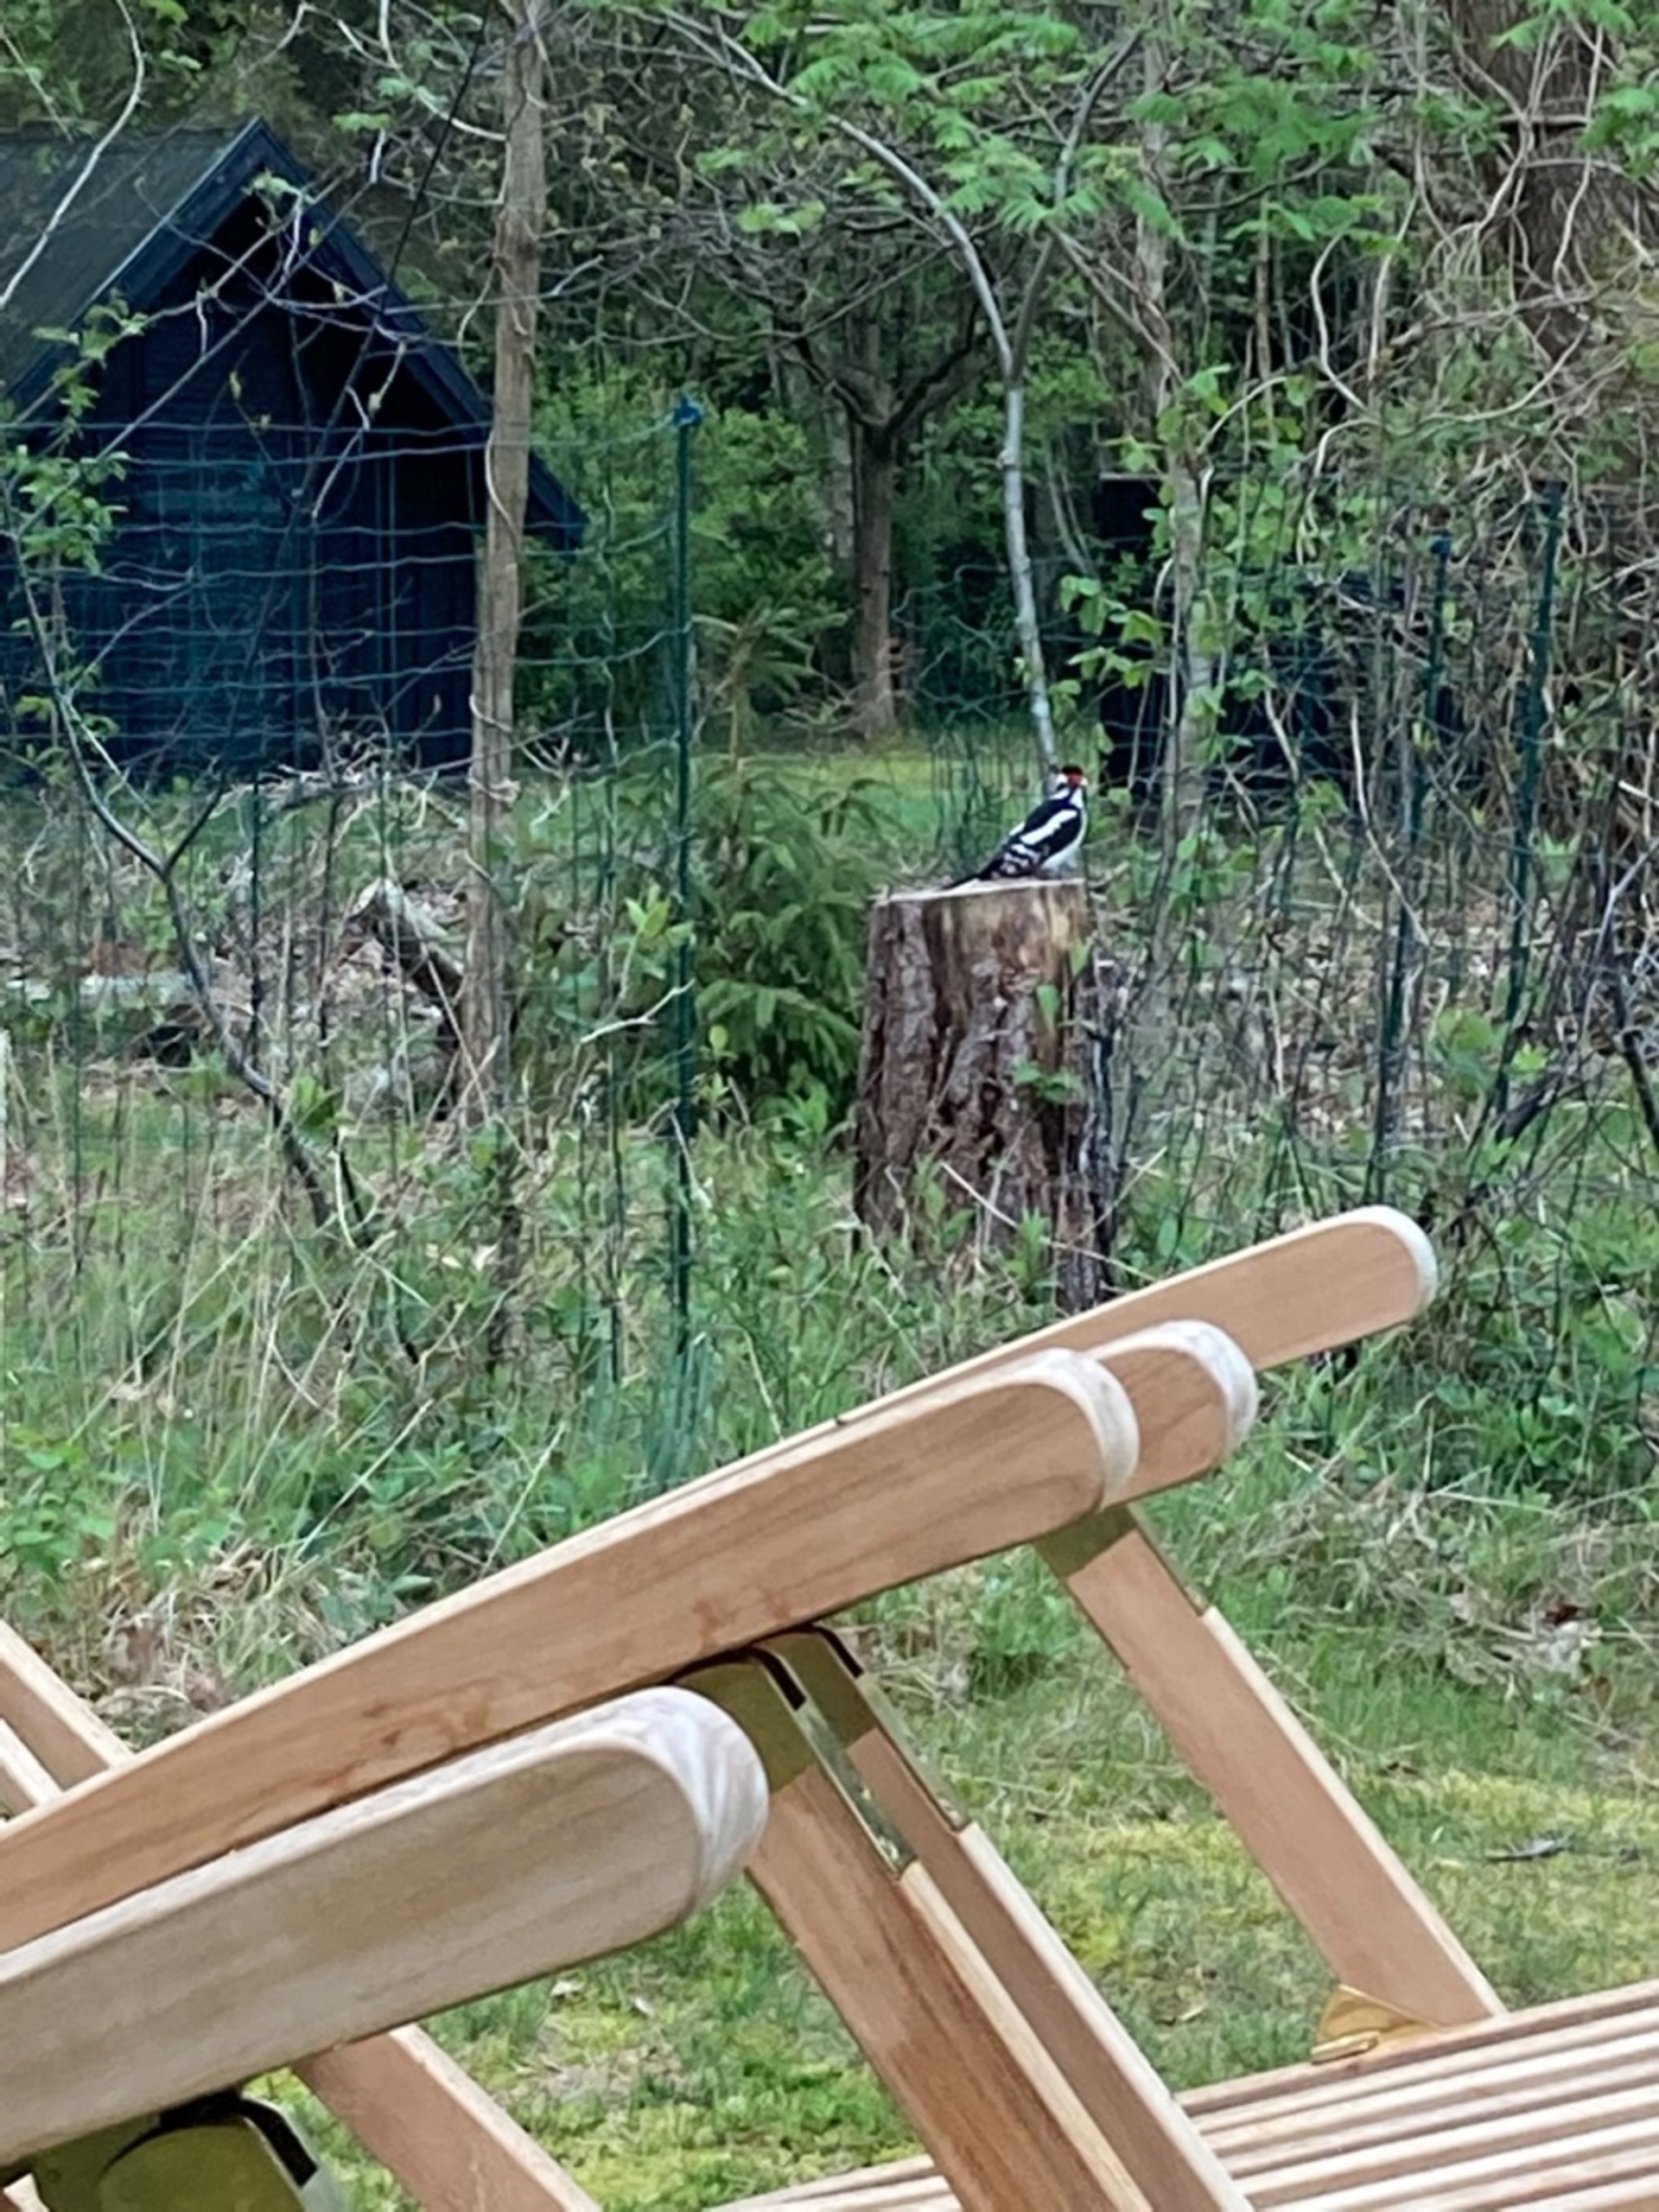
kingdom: Animalia
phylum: Chordata
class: Aves
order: Piciformes
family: Picidae
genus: Dendrocopos
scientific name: Dendrocopos major
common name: Stor flagspætte
